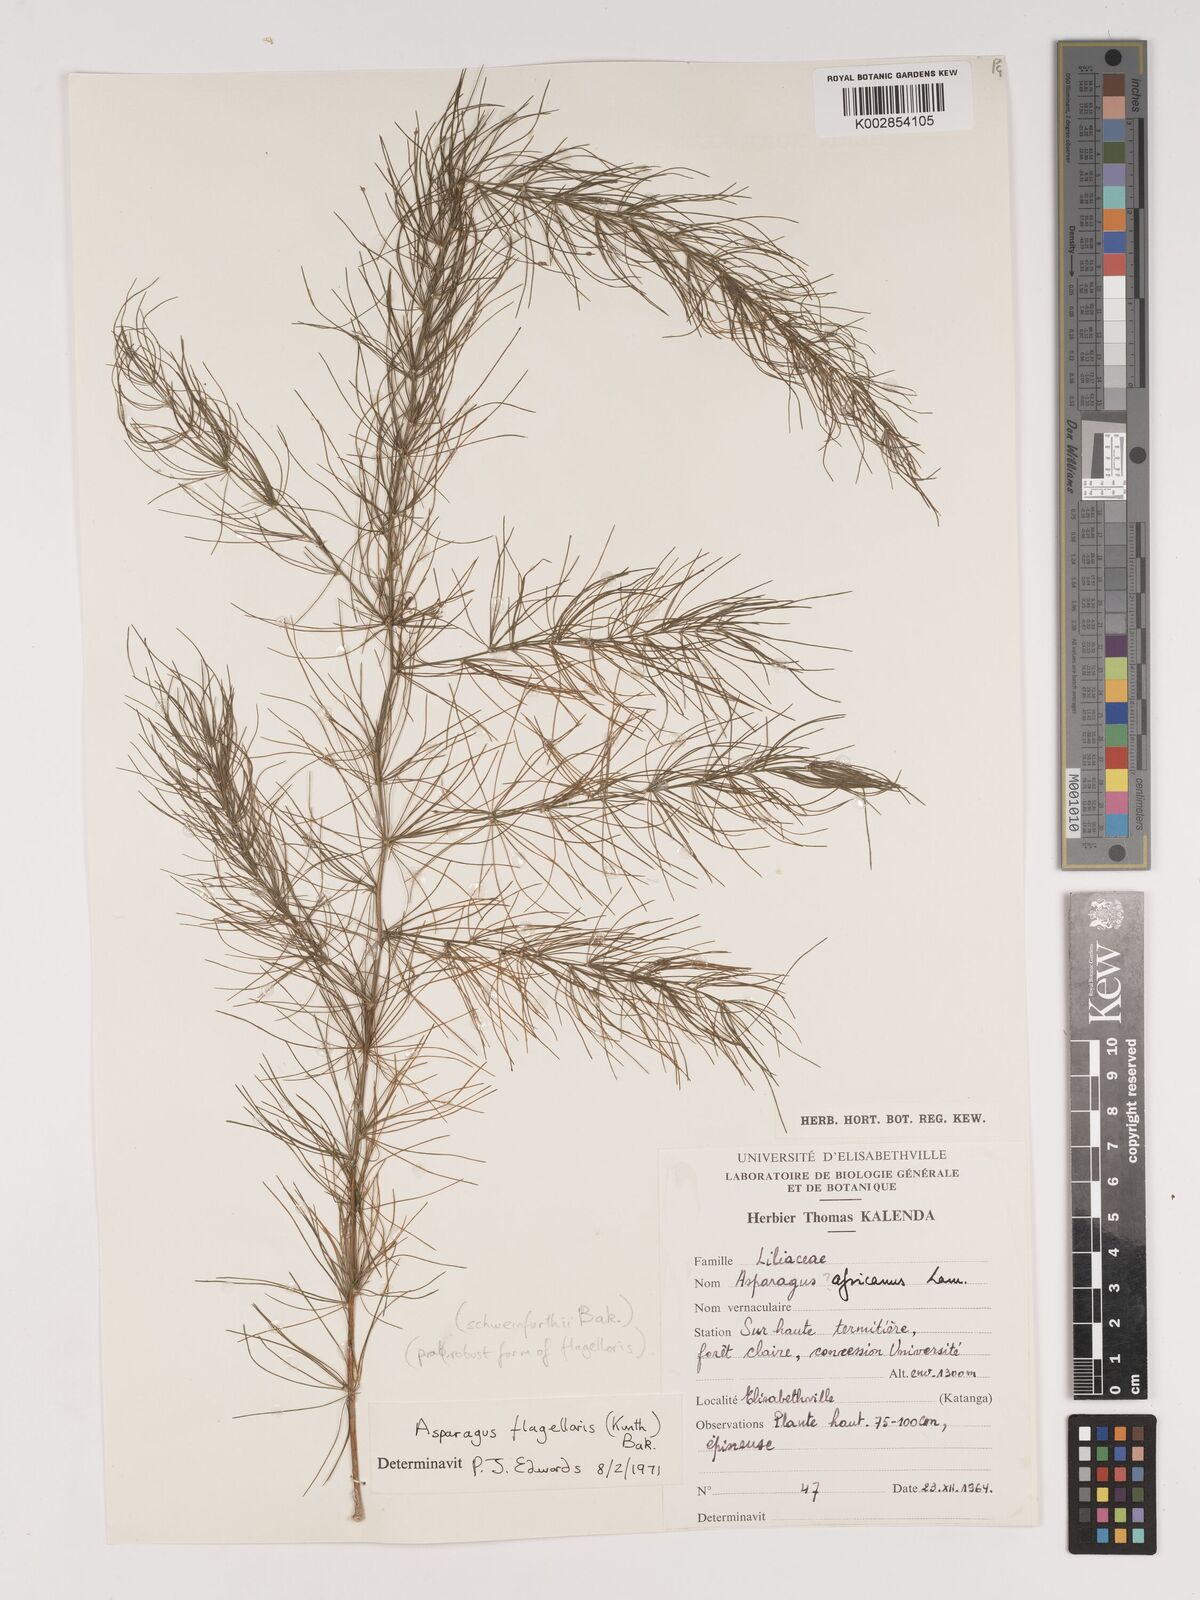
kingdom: Plantae
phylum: Tracheophyta
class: Liliopsida
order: Asparagales
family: Asparagaceae
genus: Asparagus
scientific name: Asparagus flagellaris
